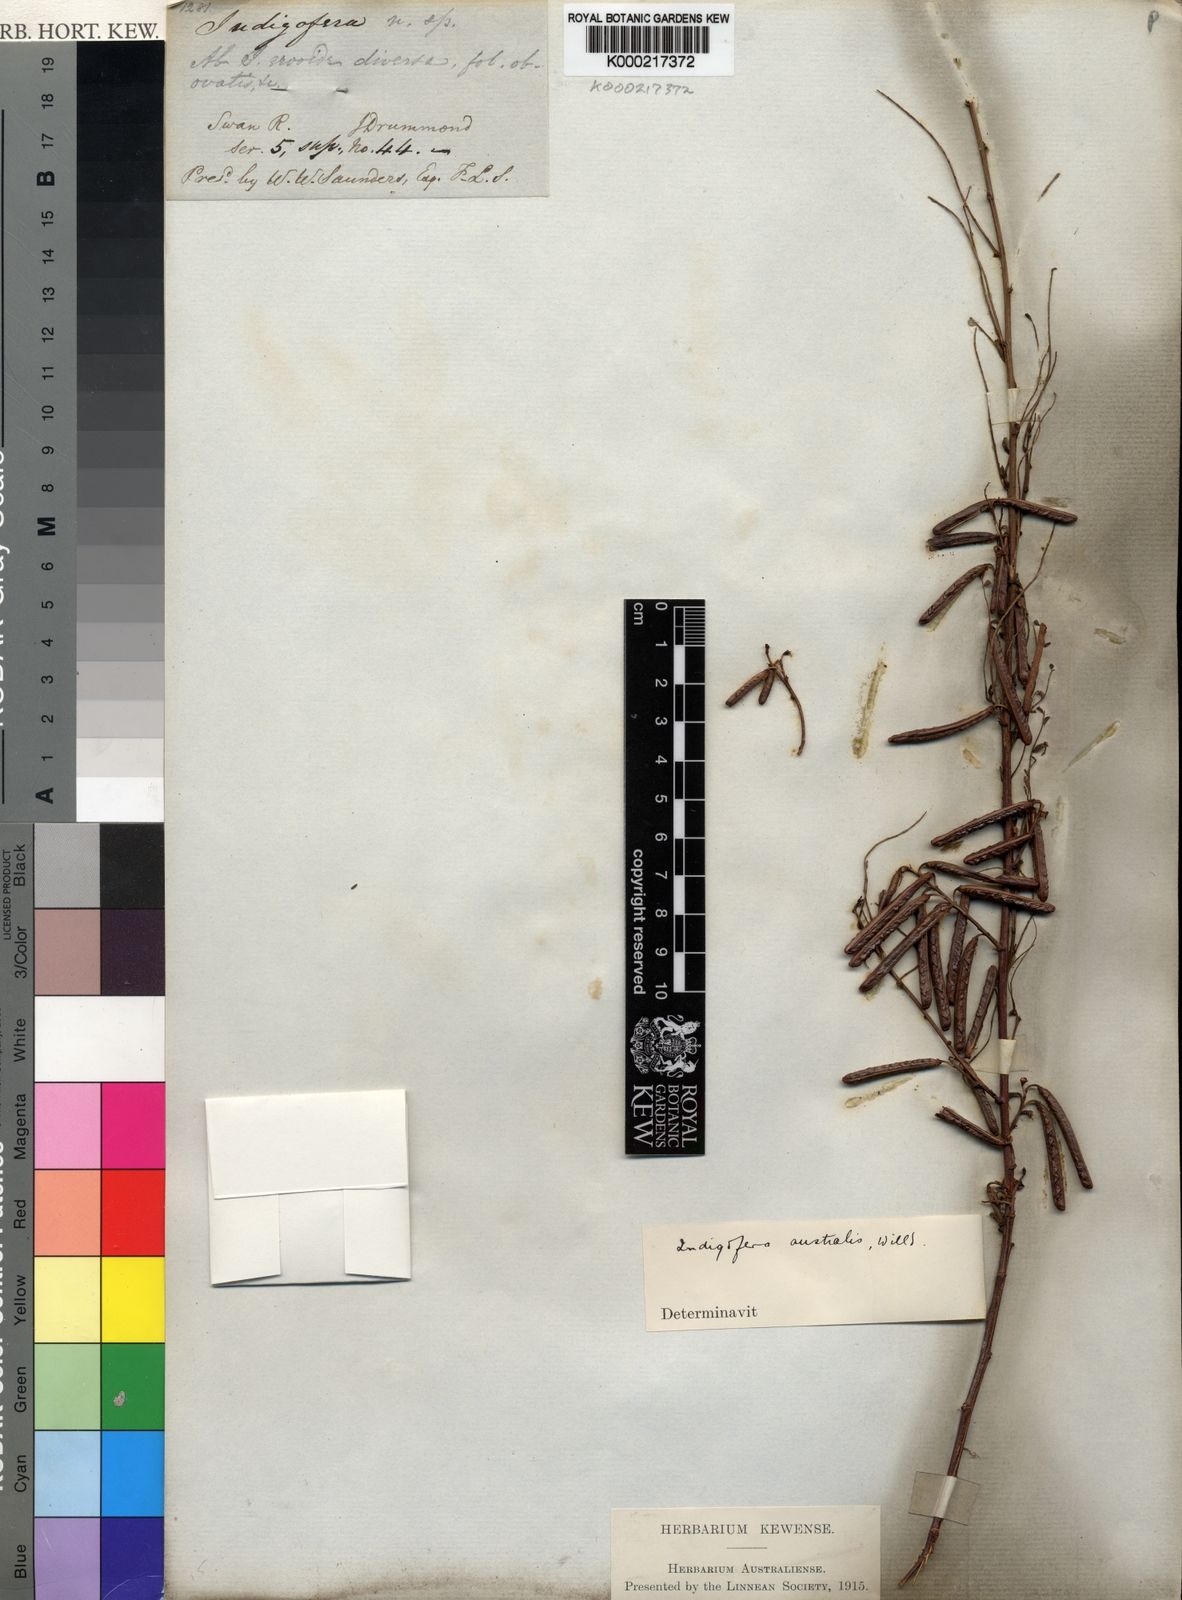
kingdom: Plantae
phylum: Tracheophyta
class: Magnoliopsida
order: Fabales
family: Fabaceae
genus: Indigofera
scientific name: Indigofera australis
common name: Australian indigo
